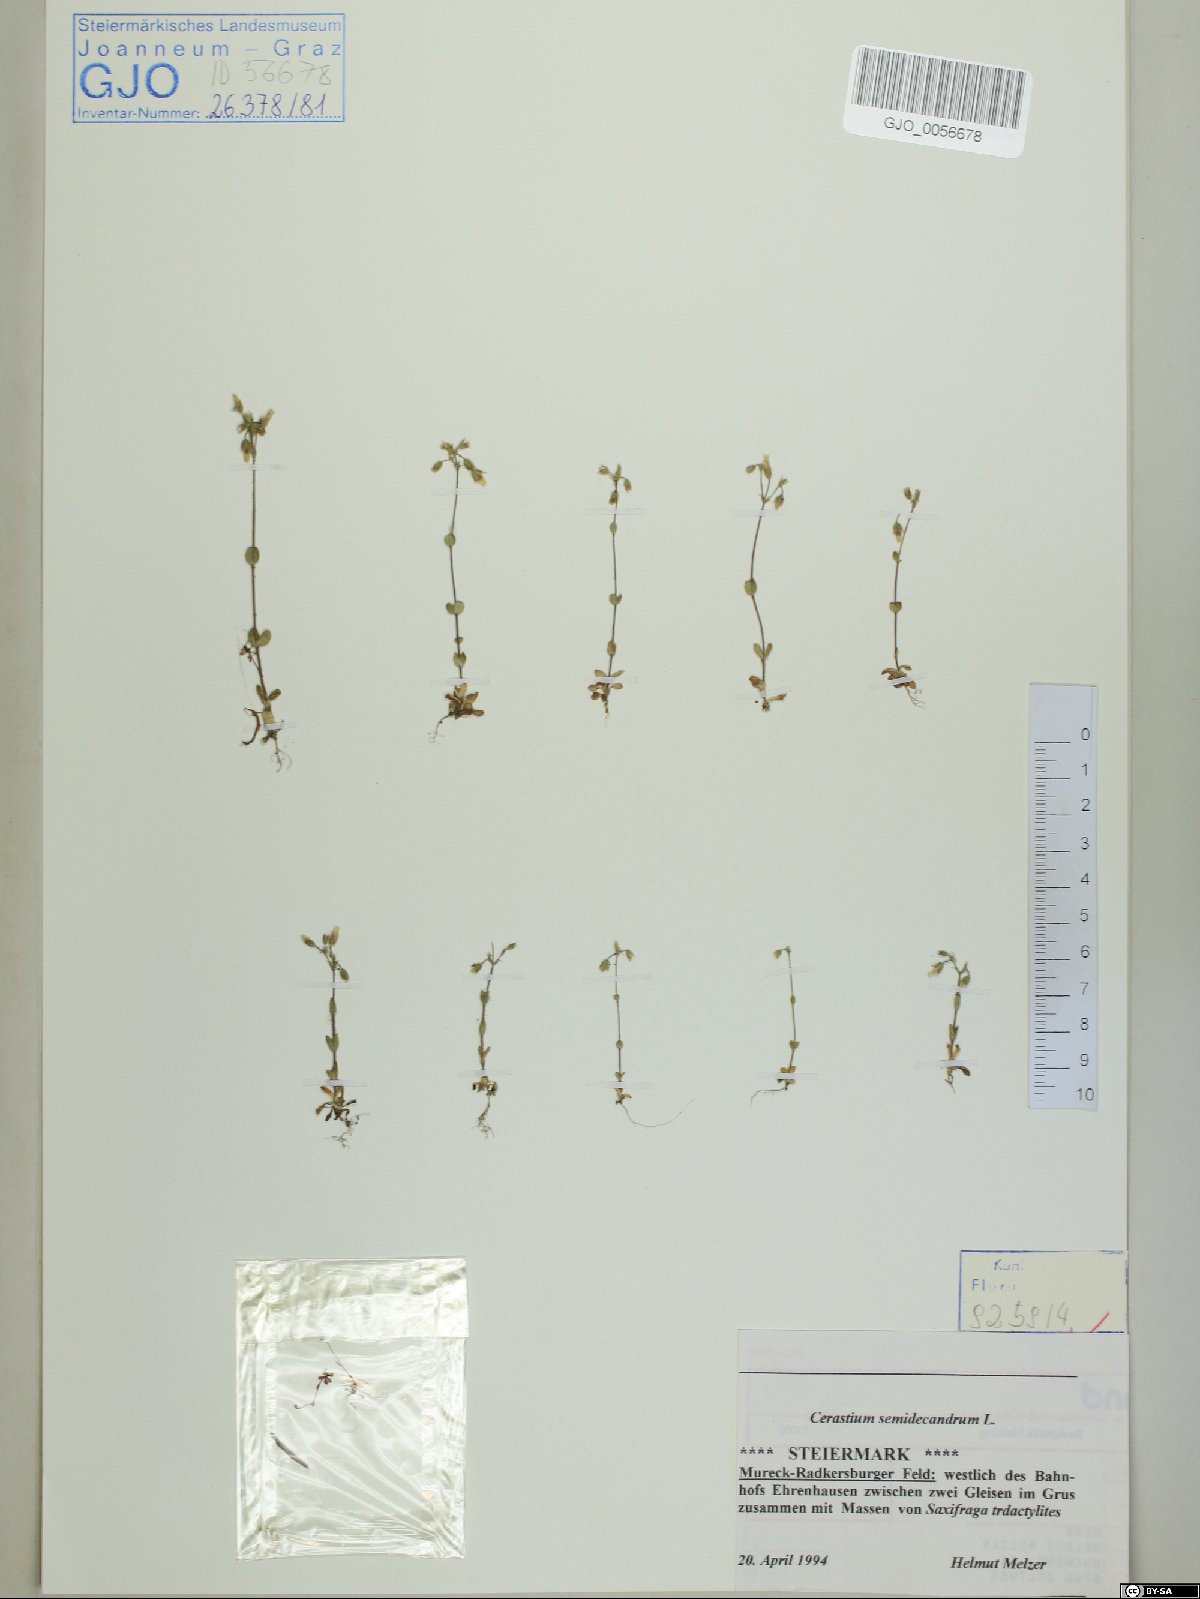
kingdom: Plantae
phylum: Tracheophyta
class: Magnoliopsida
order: Caryophyllales
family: Caryophyllaceae
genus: Cerastium
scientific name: Cerastium semidecandrum
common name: Little mouse-ear
